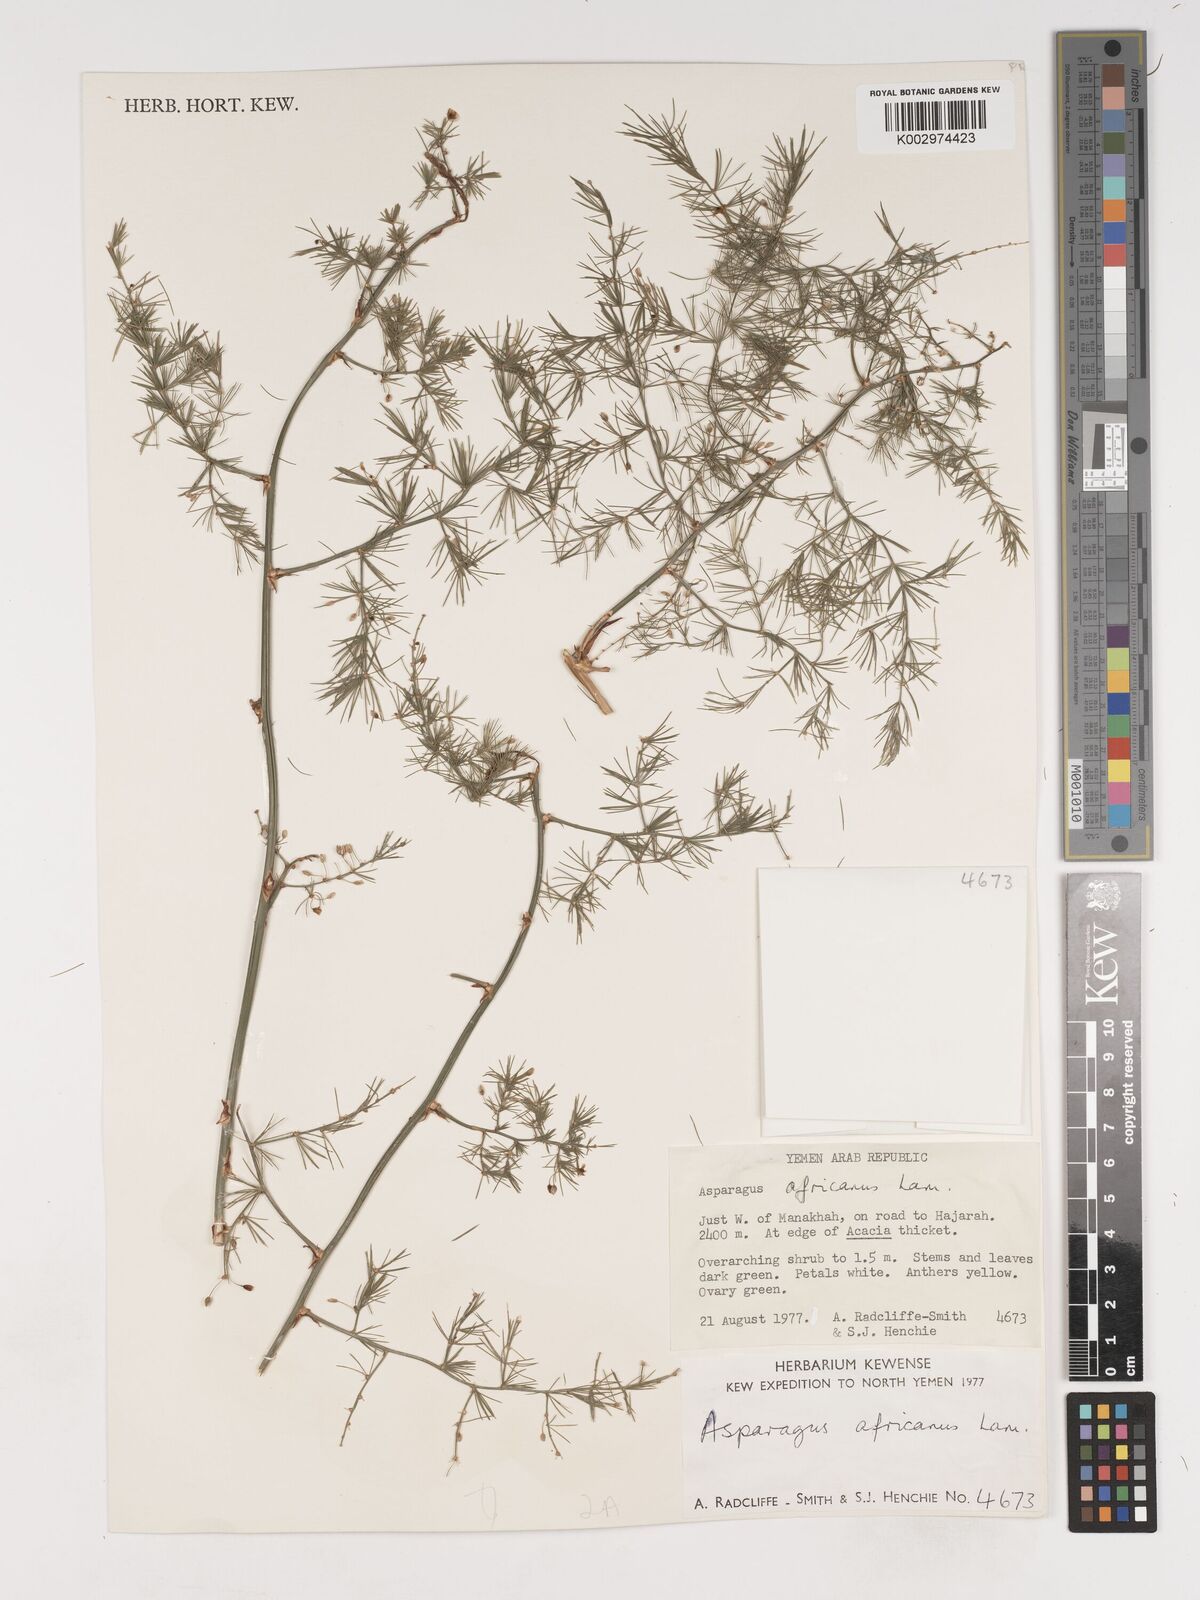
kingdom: Plantae
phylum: Tracheophyta
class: Liliopsida
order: Asparagales
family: Asparagaceae
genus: Asparagus
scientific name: Asparagus africanus
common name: Asparagus-fern
